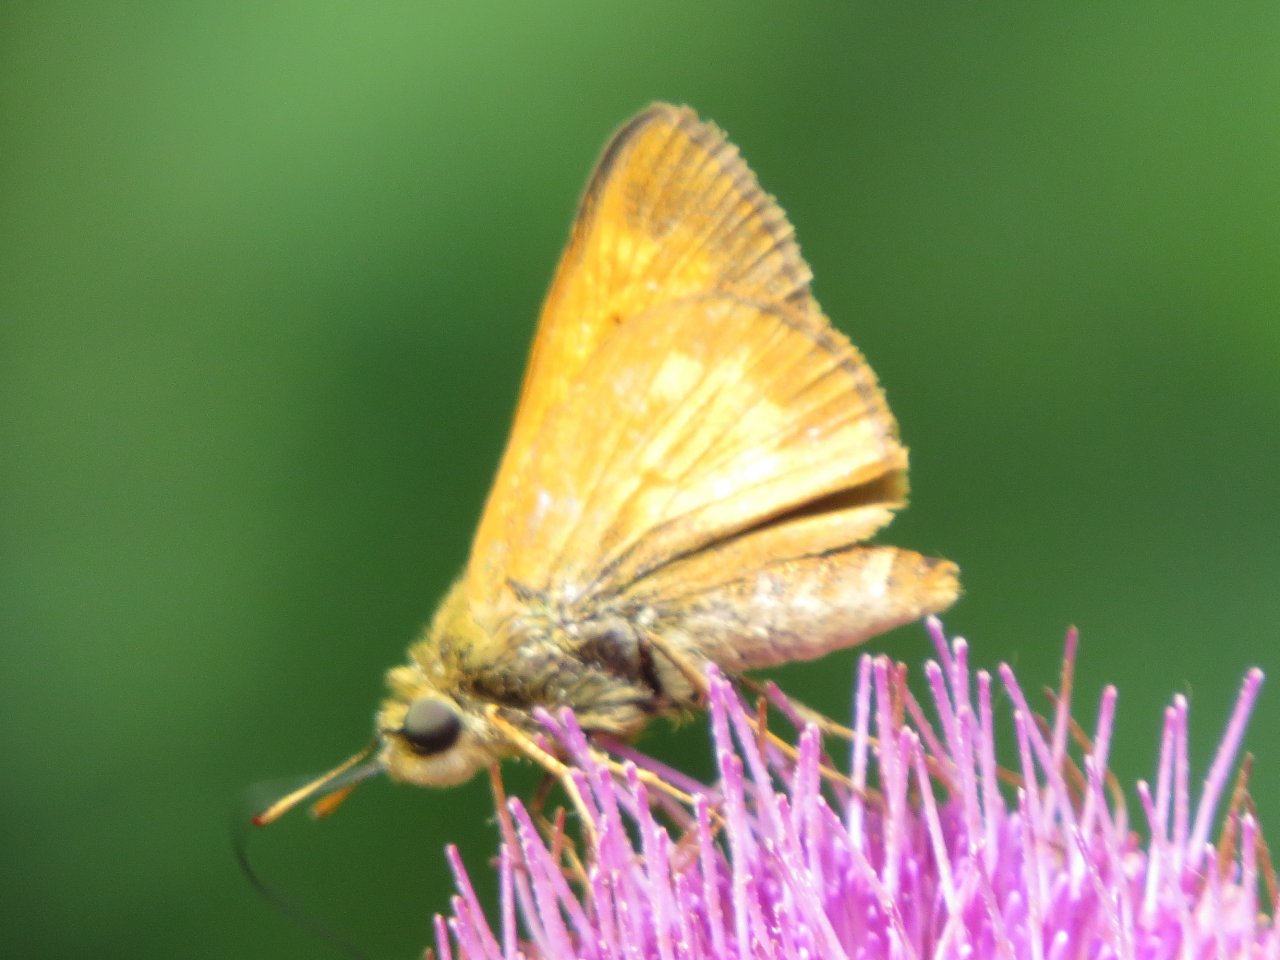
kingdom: Animalia
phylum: Arthropoda
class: Insecta
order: Lepidoptera
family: Hesperiidae
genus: Poanes
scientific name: Poanes yehl
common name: Yehl Skipper
